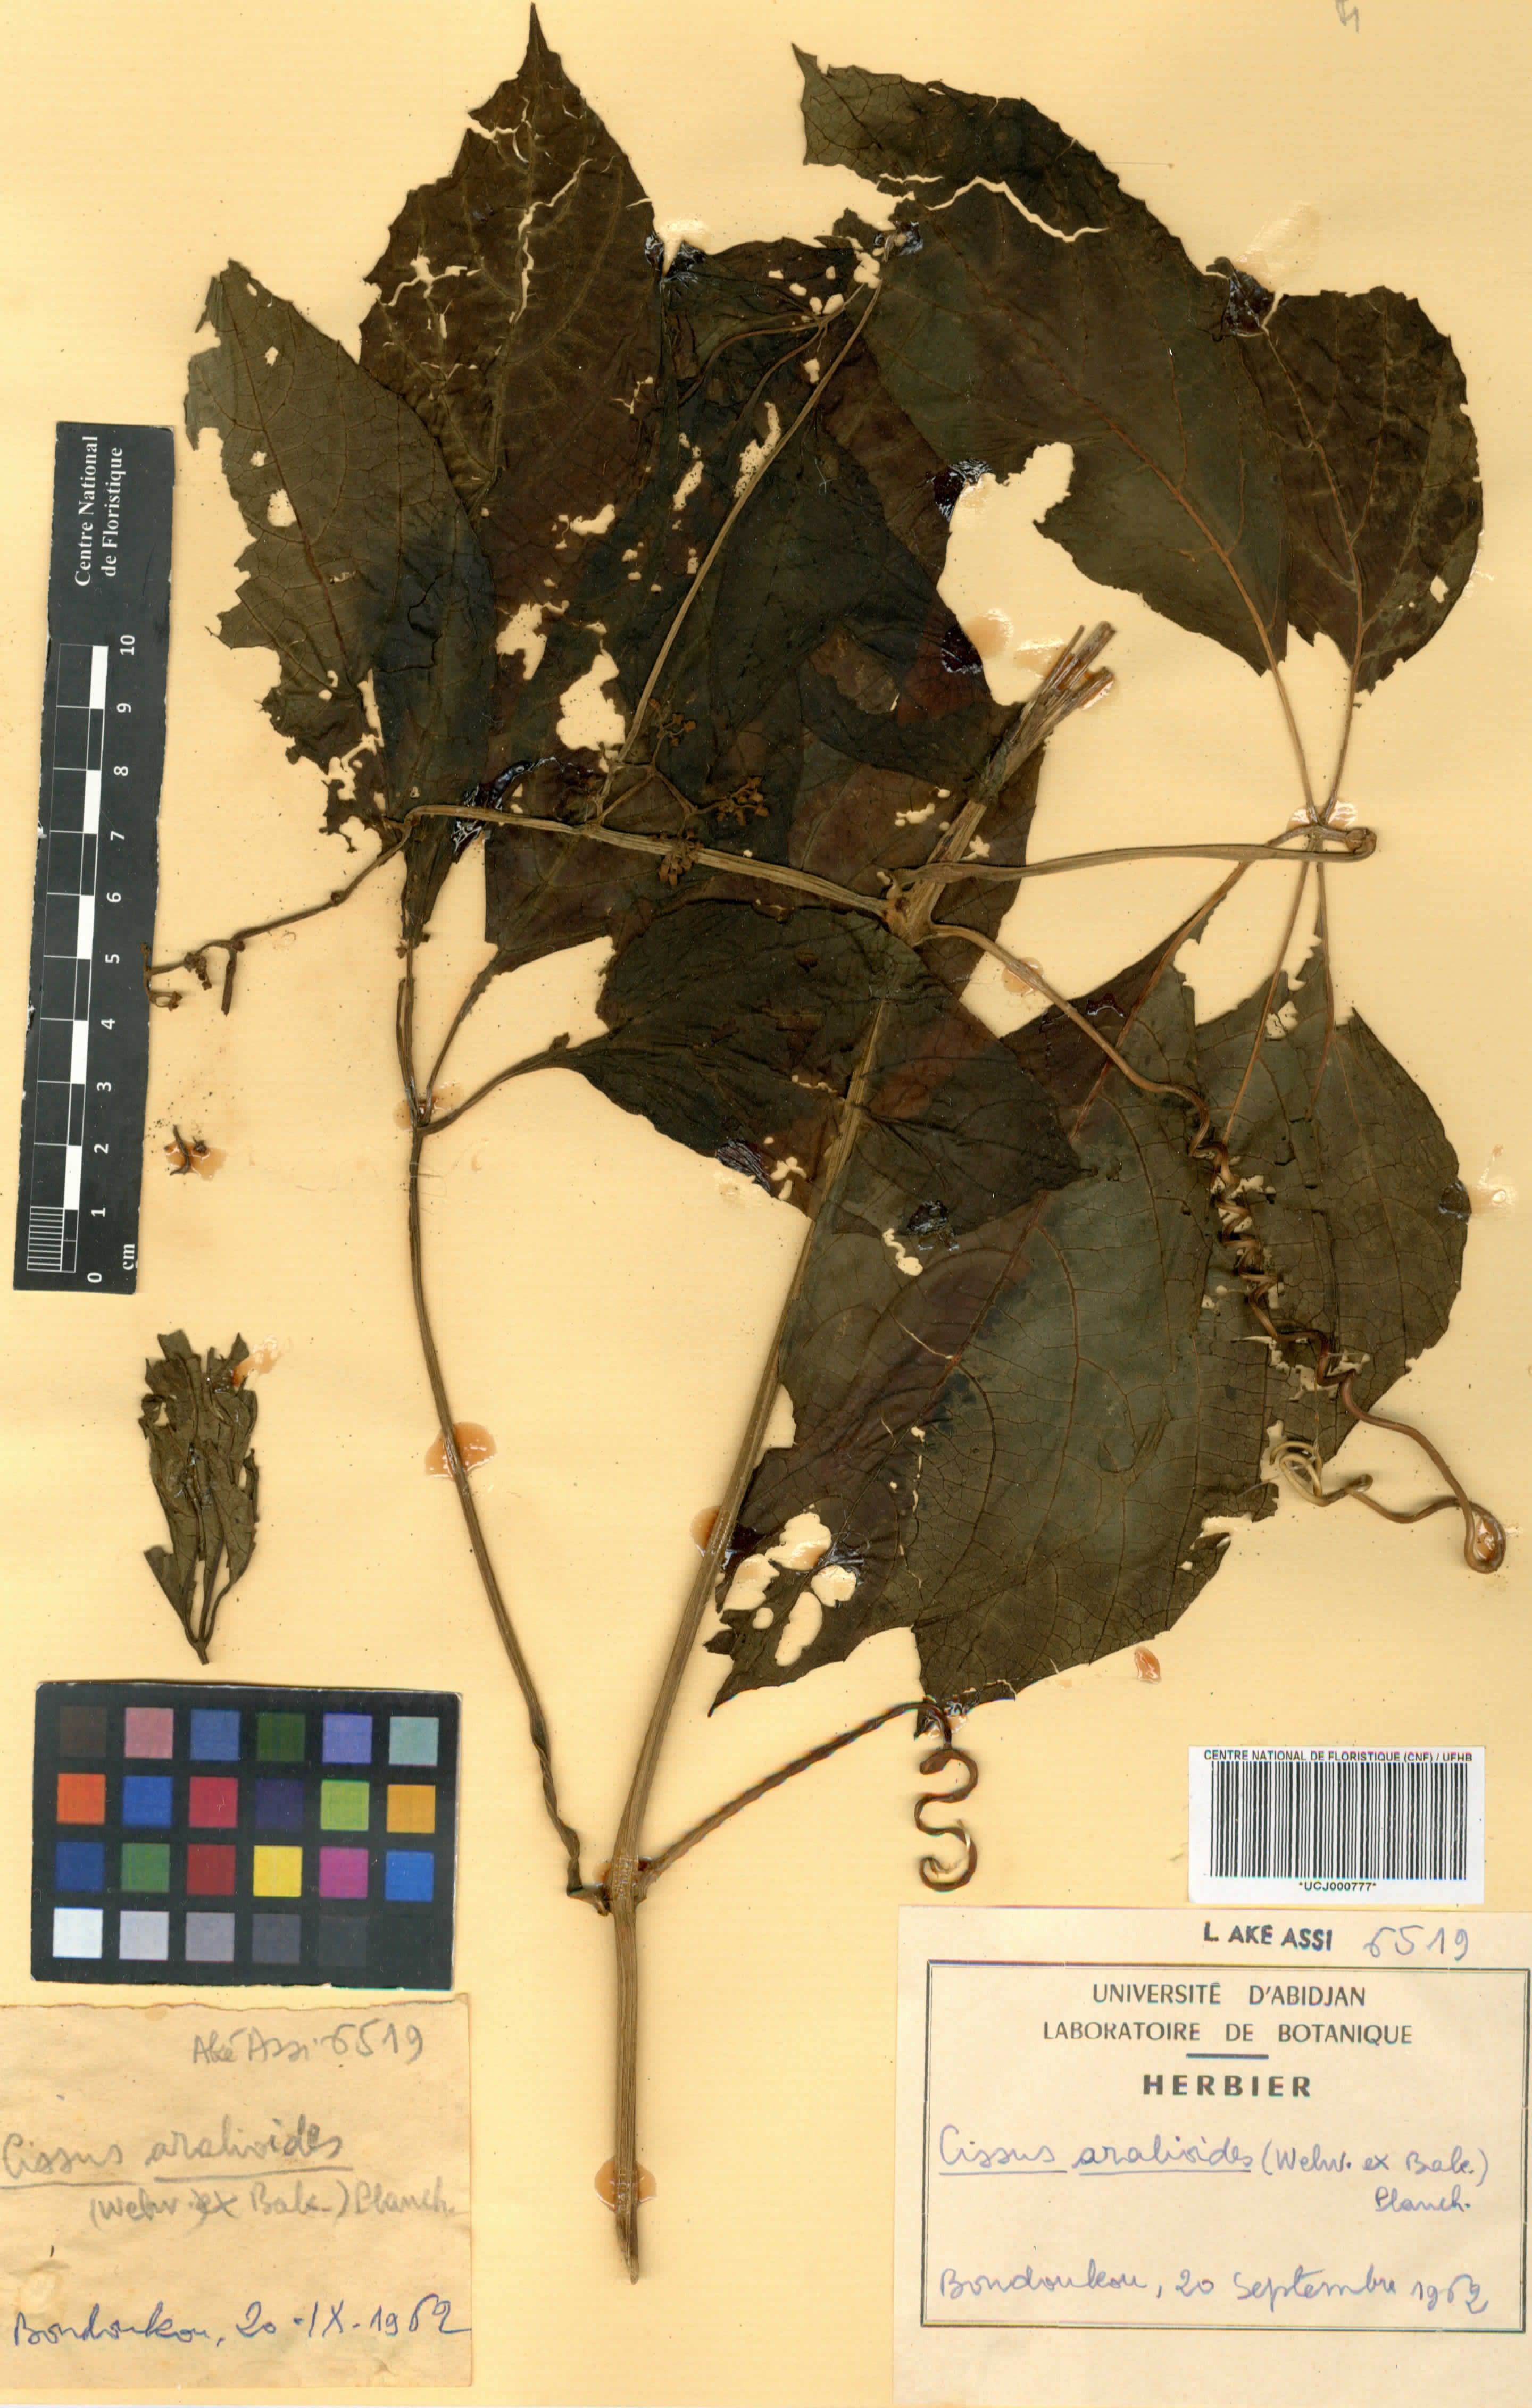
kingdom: Plantae
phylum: Tracheophyta
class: Magnoliopsida
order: Vitales
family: Vitaceae
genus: Cissus
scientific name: Cissus aralioides
